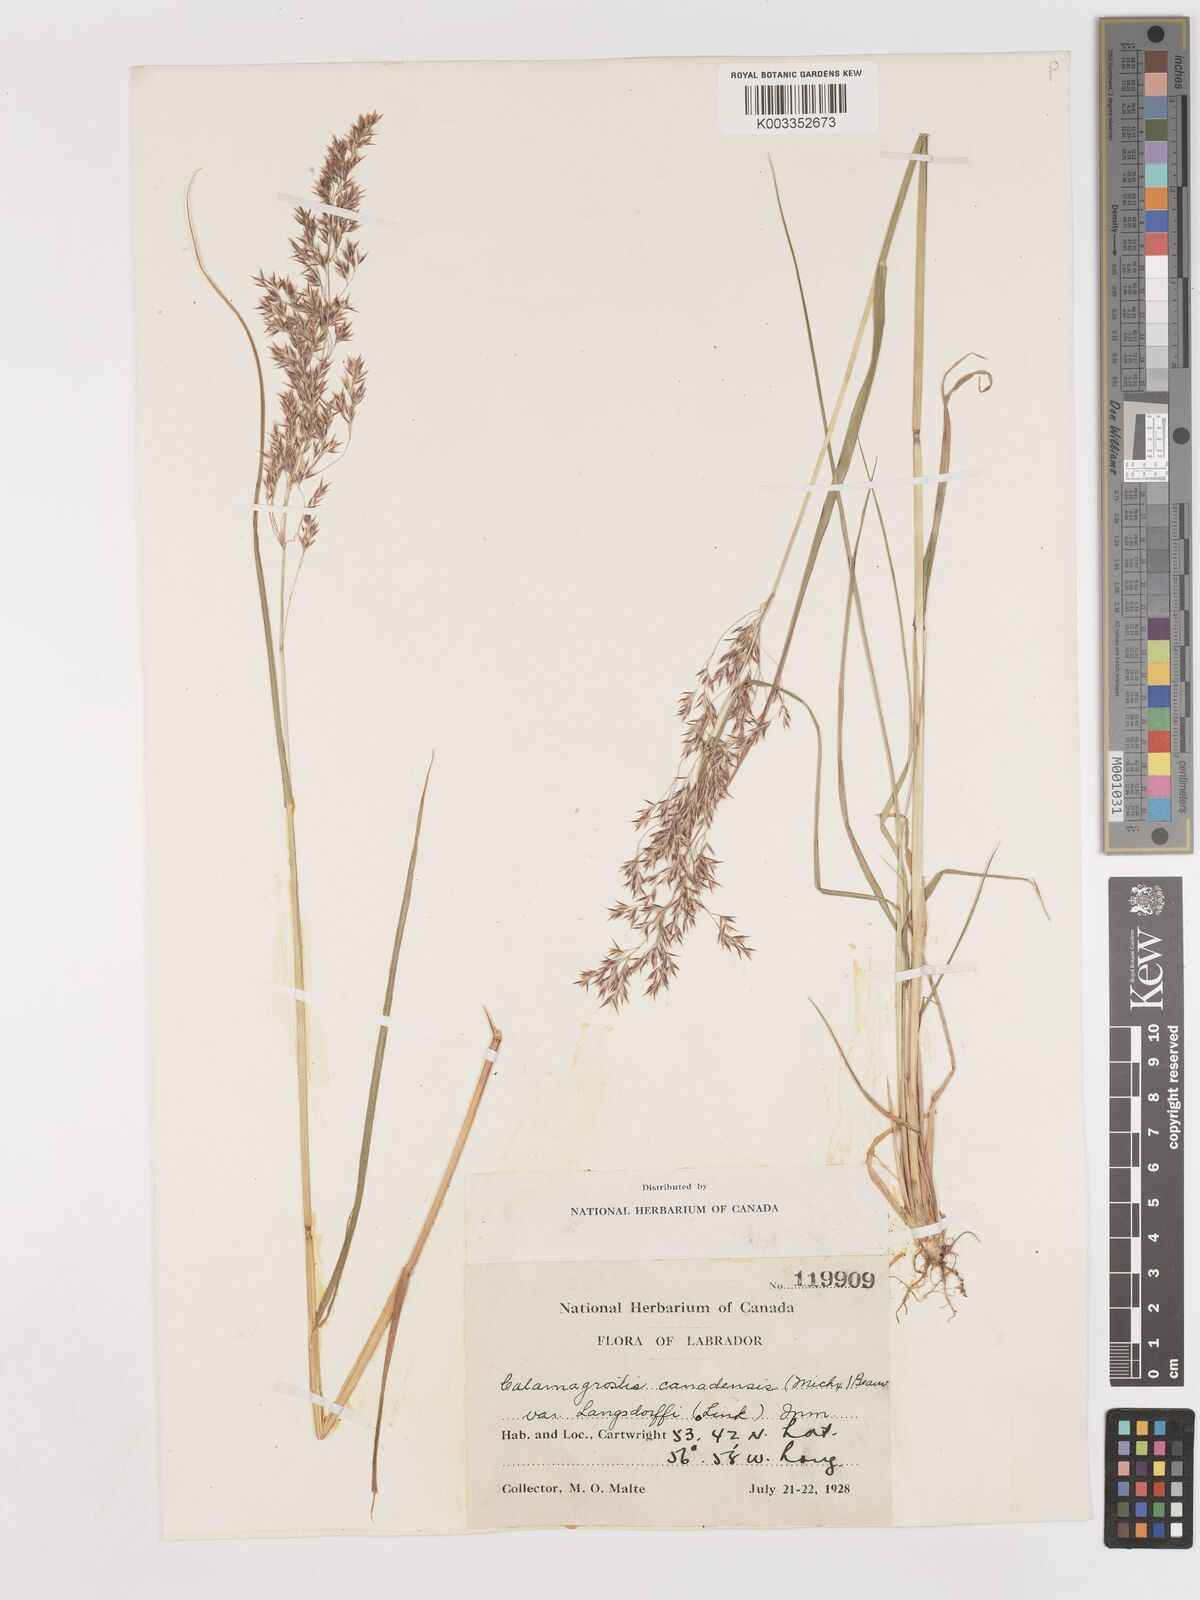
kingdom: Plantae
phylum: Tracheophyta
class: Liliopsida
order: Poales
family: Poaceae
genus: Calamagrostis
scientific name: Calamagrostis canadensis
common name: Canada bluejoint
